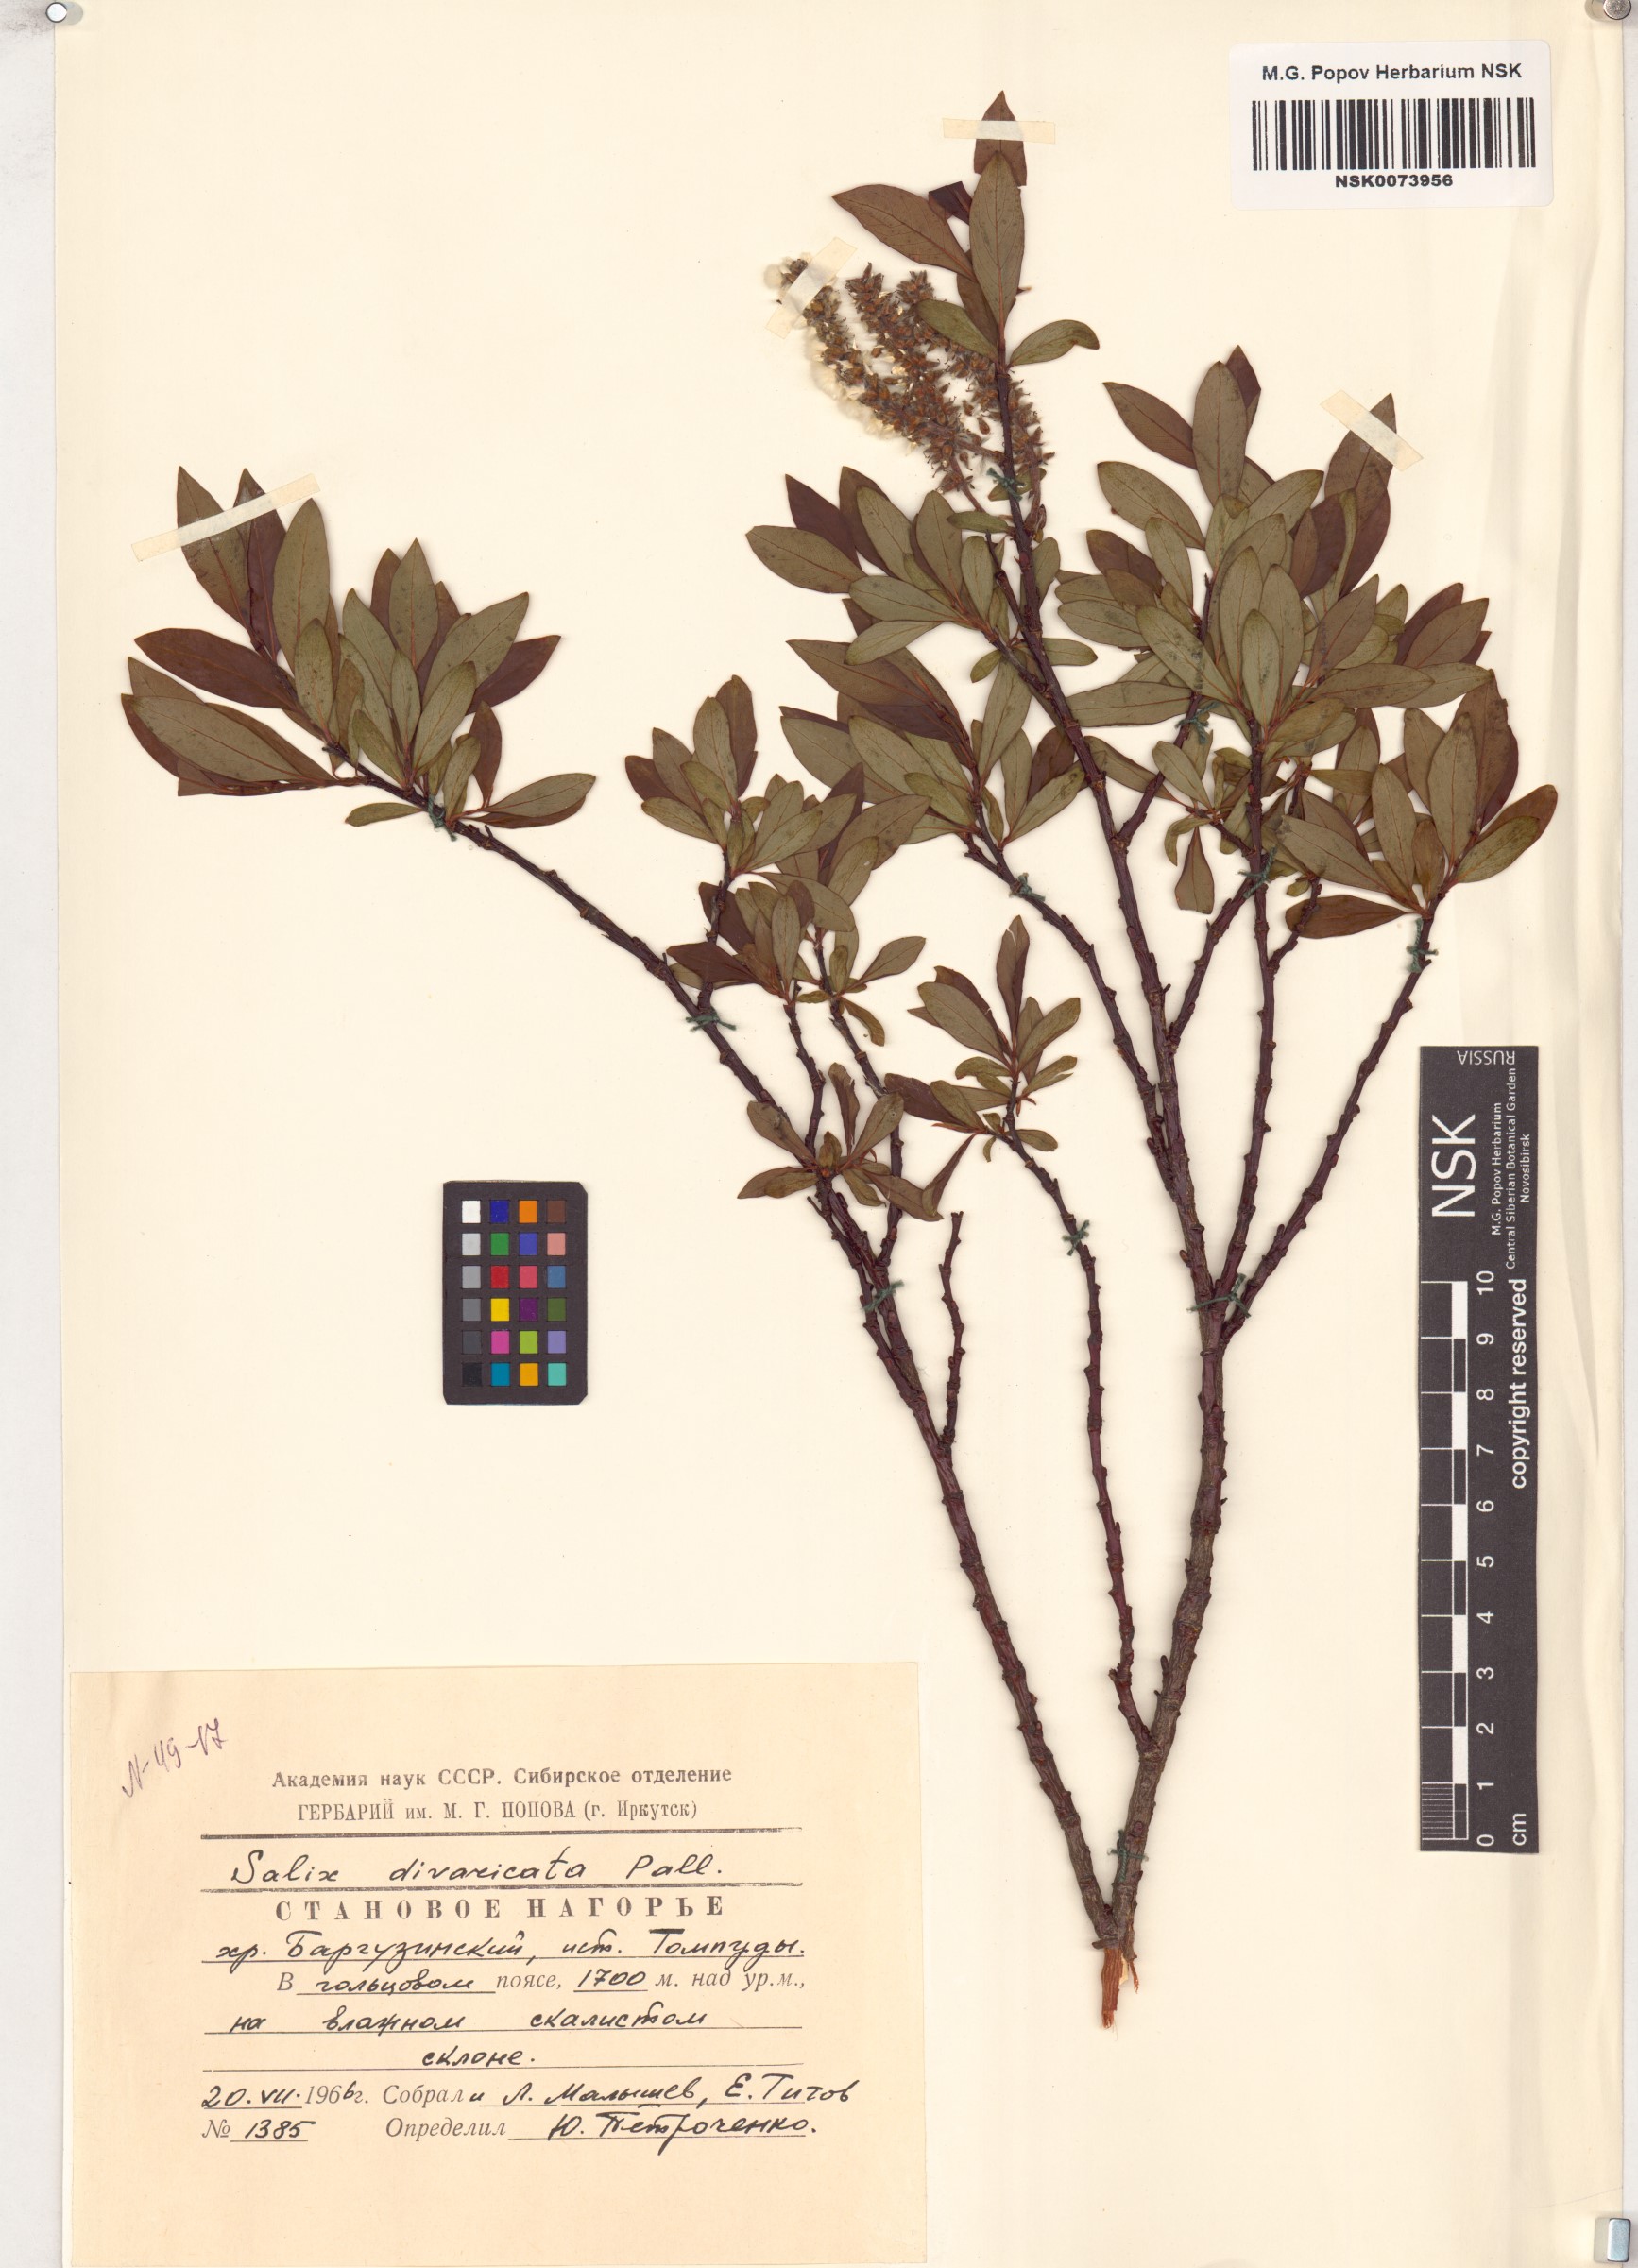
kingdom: Plantae
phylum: Tracheophyta
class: Magnoliopsida
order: Malpighiales
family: Salicaceae
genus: Salix
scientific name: Salix divaricata
